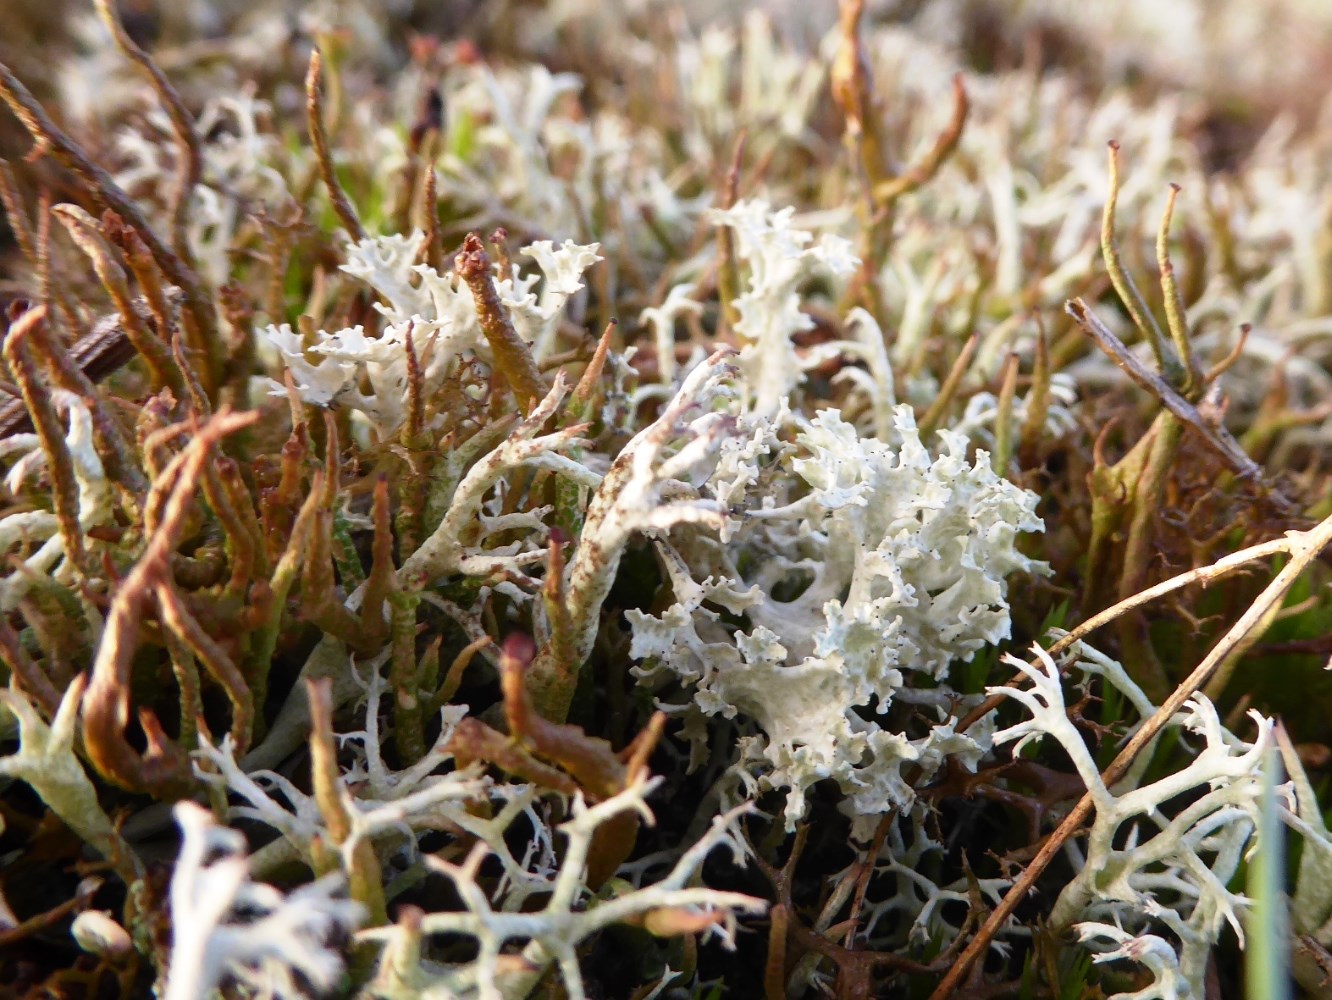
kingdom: Fungi
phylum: Ascomycota
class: Lecanoromycetes
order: Lecanorales
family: Parmeliaceae
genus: Nephromopsis
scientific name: Nephromopsis nivalis
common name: sne-kruslav
